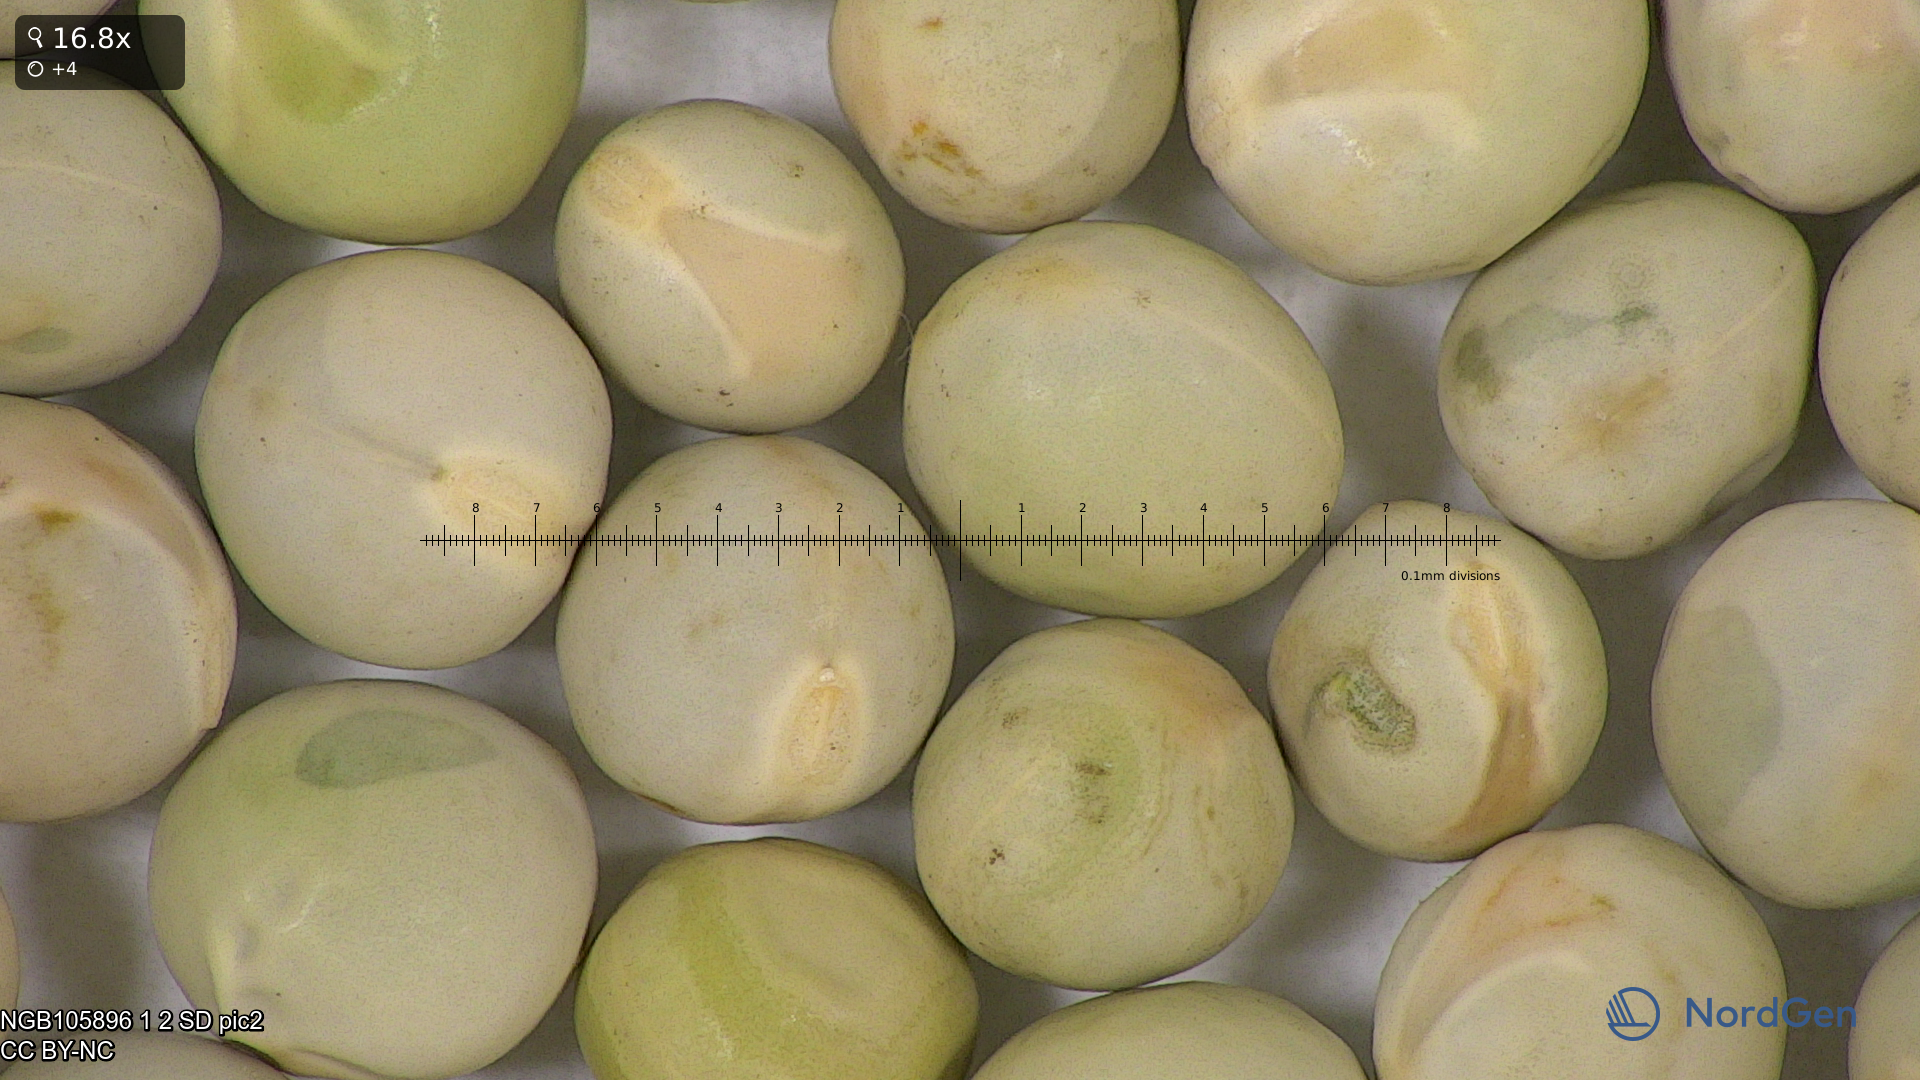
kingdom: Plantae
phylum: Tracheophyta
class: Magnoliopsida
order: Fabales
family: Fabaceae
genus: Lathyrus
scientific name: Lathyrus oleraceus
